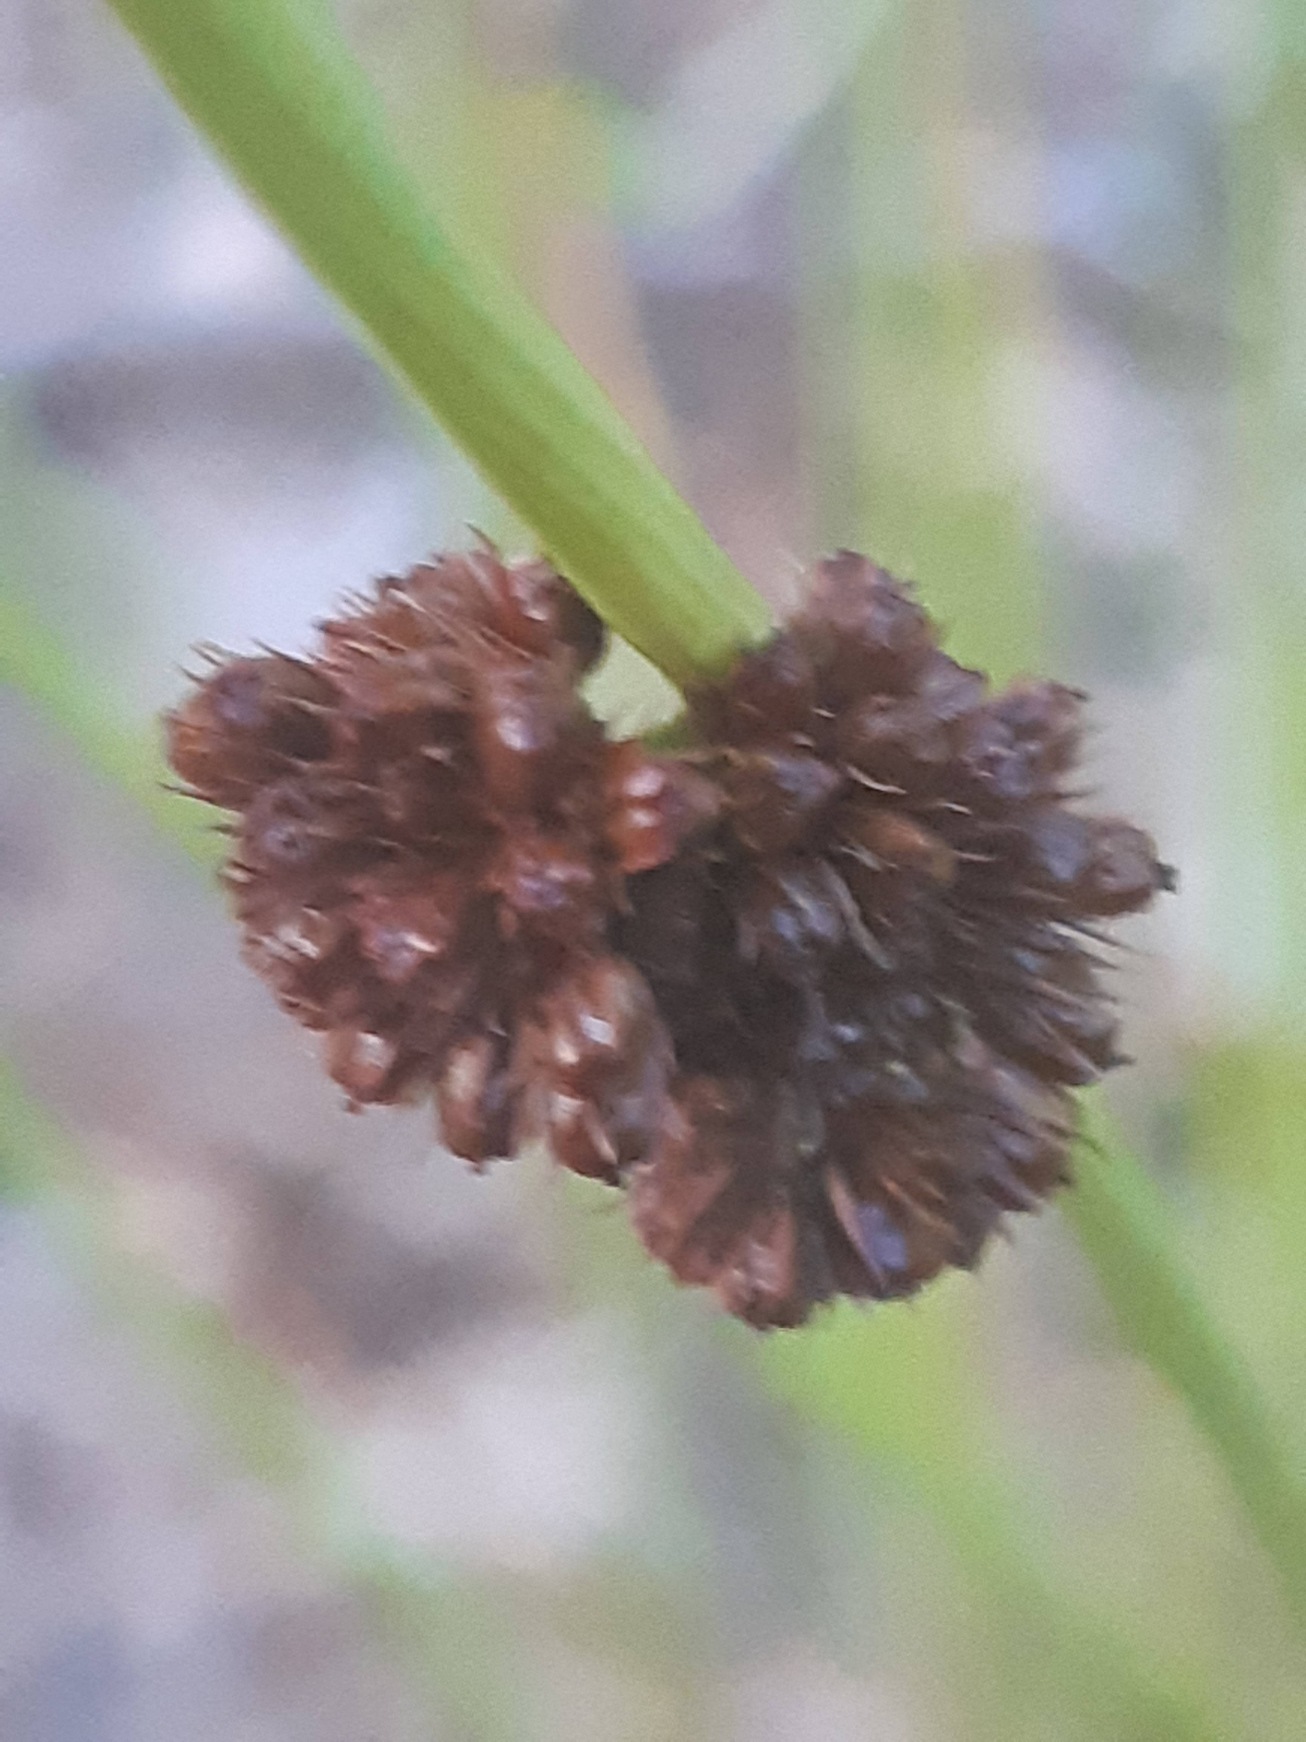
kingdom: Plantae
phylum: Tracheophyta
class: Liliopsida
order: Poales
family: Juncaceae
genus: Juncus
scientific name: Juncus conglomeratus
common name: Knop-siv
